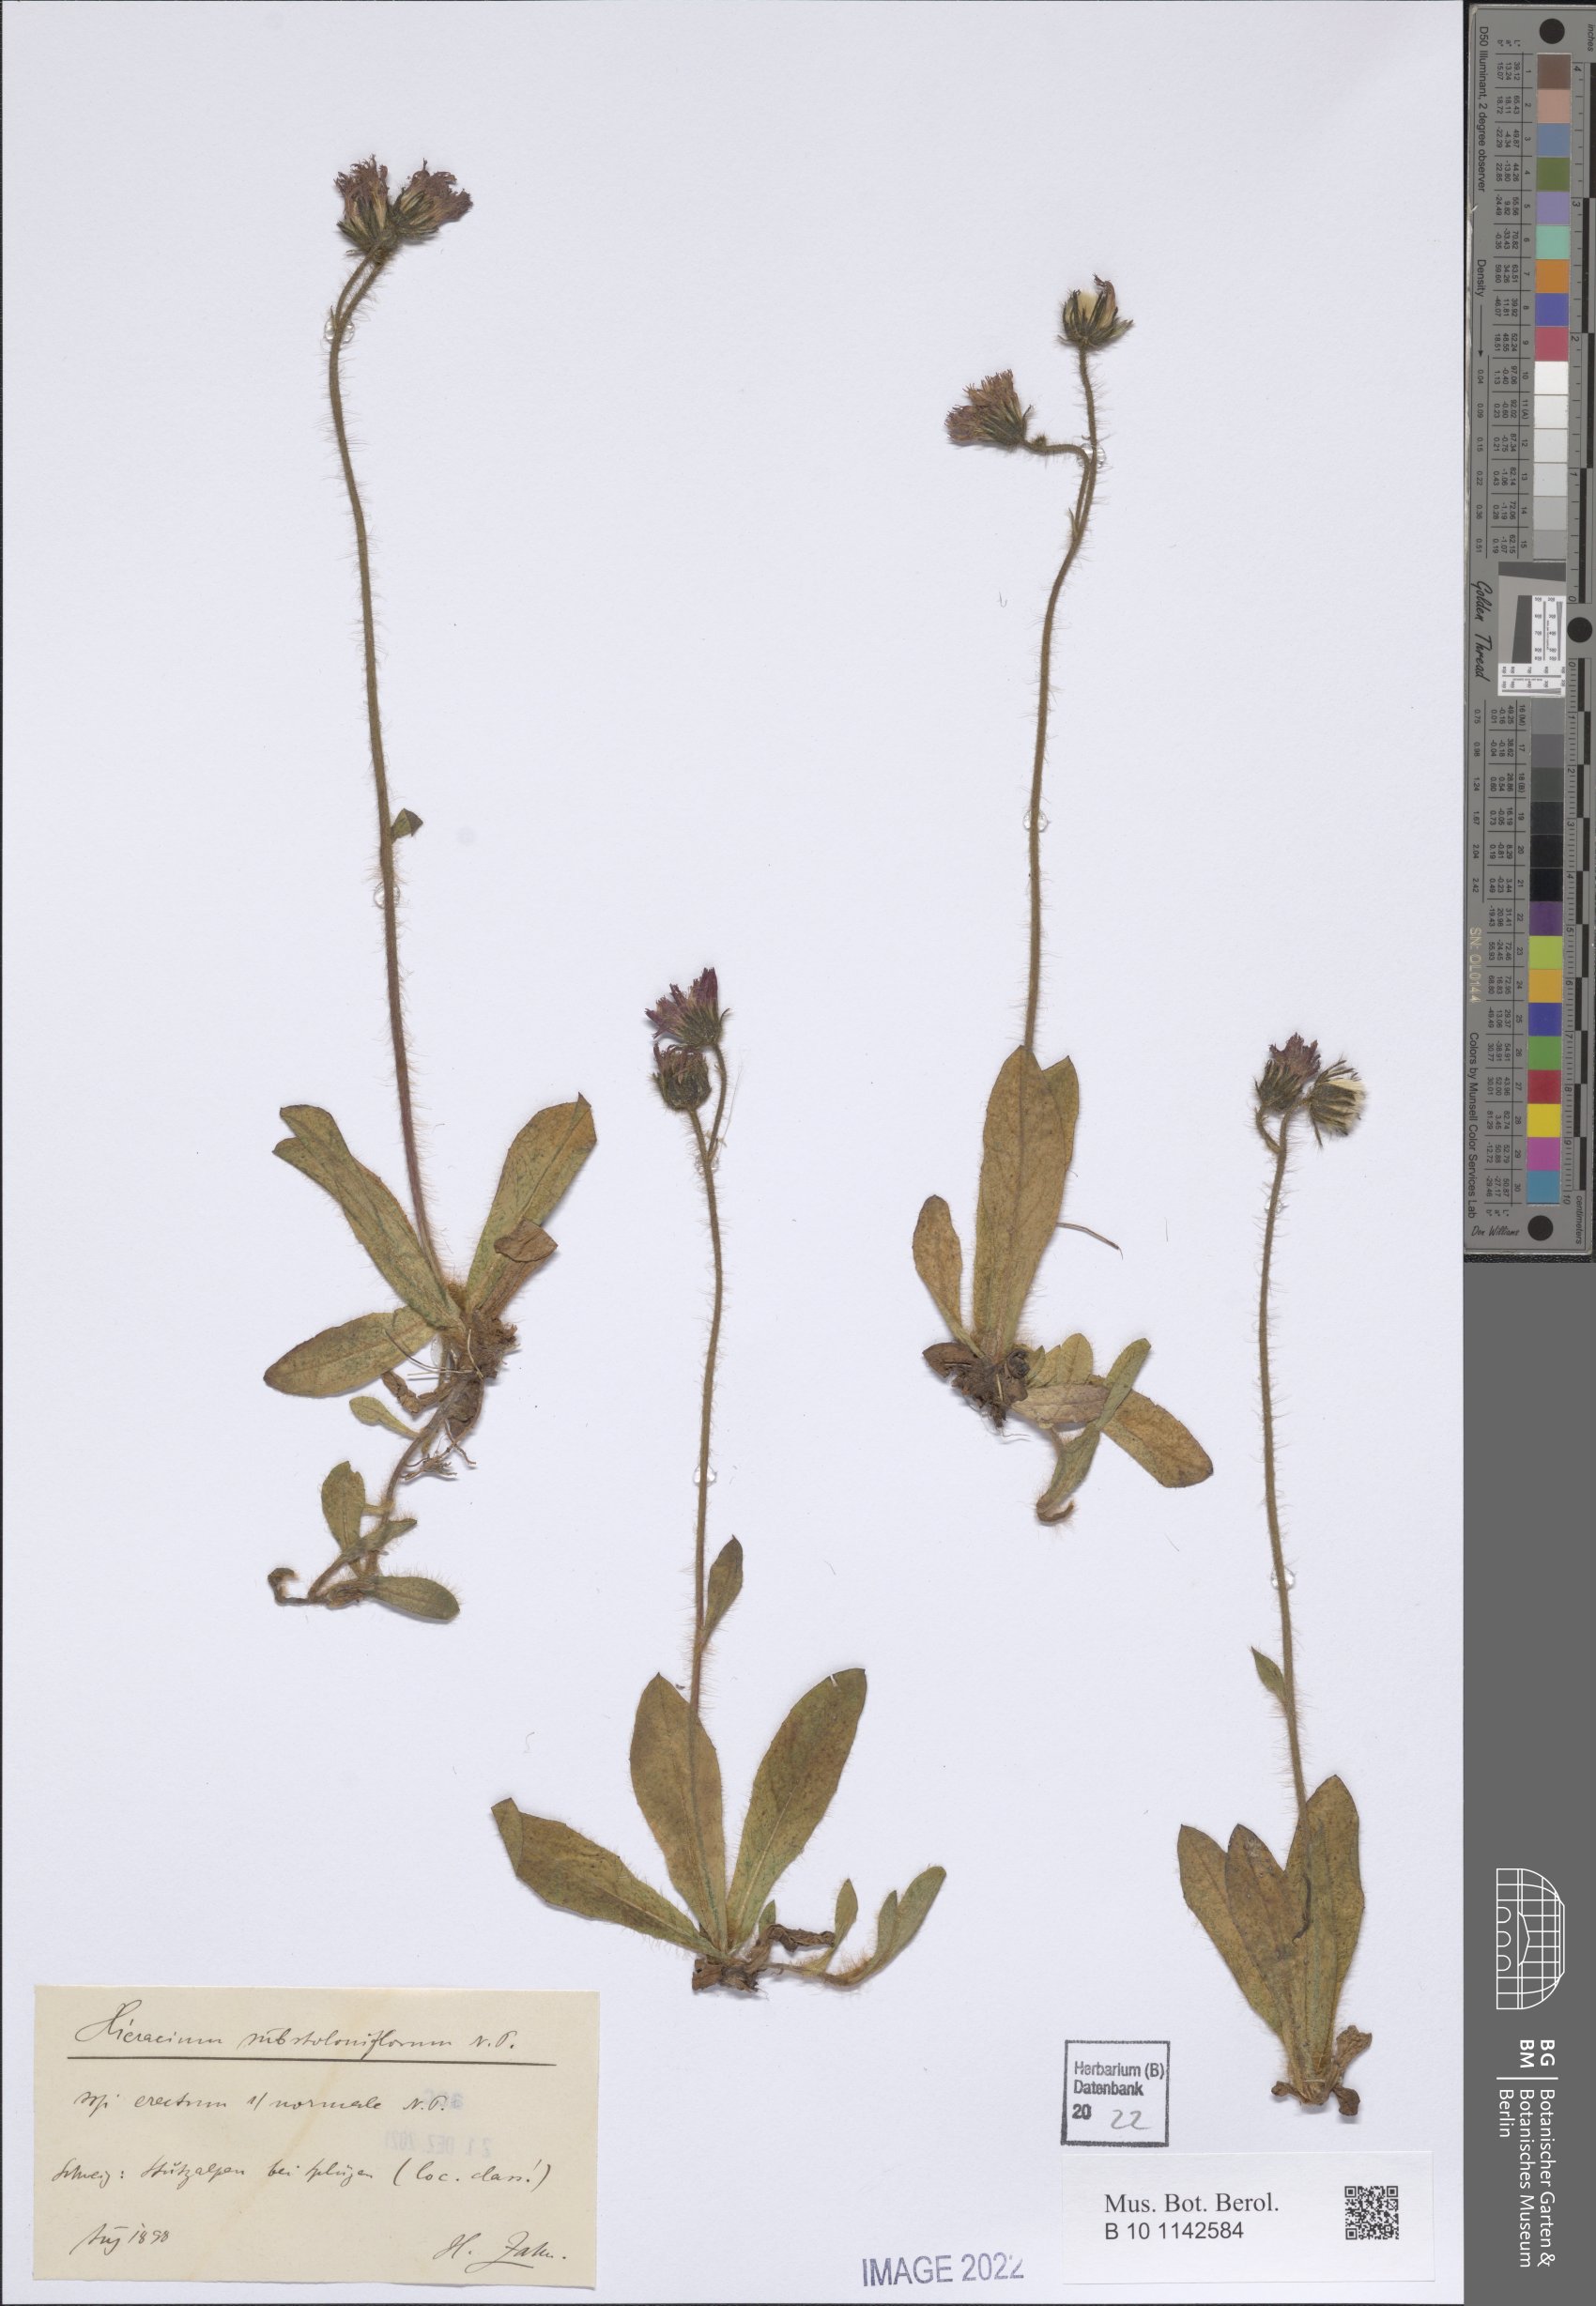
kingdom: Plantae
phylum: Tracheophyta
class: Magnoliopsida
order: Asterales
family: Asteraceae
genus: Pilosella
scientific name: Pilosella aurantiaca
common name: Fox-and-cubs
